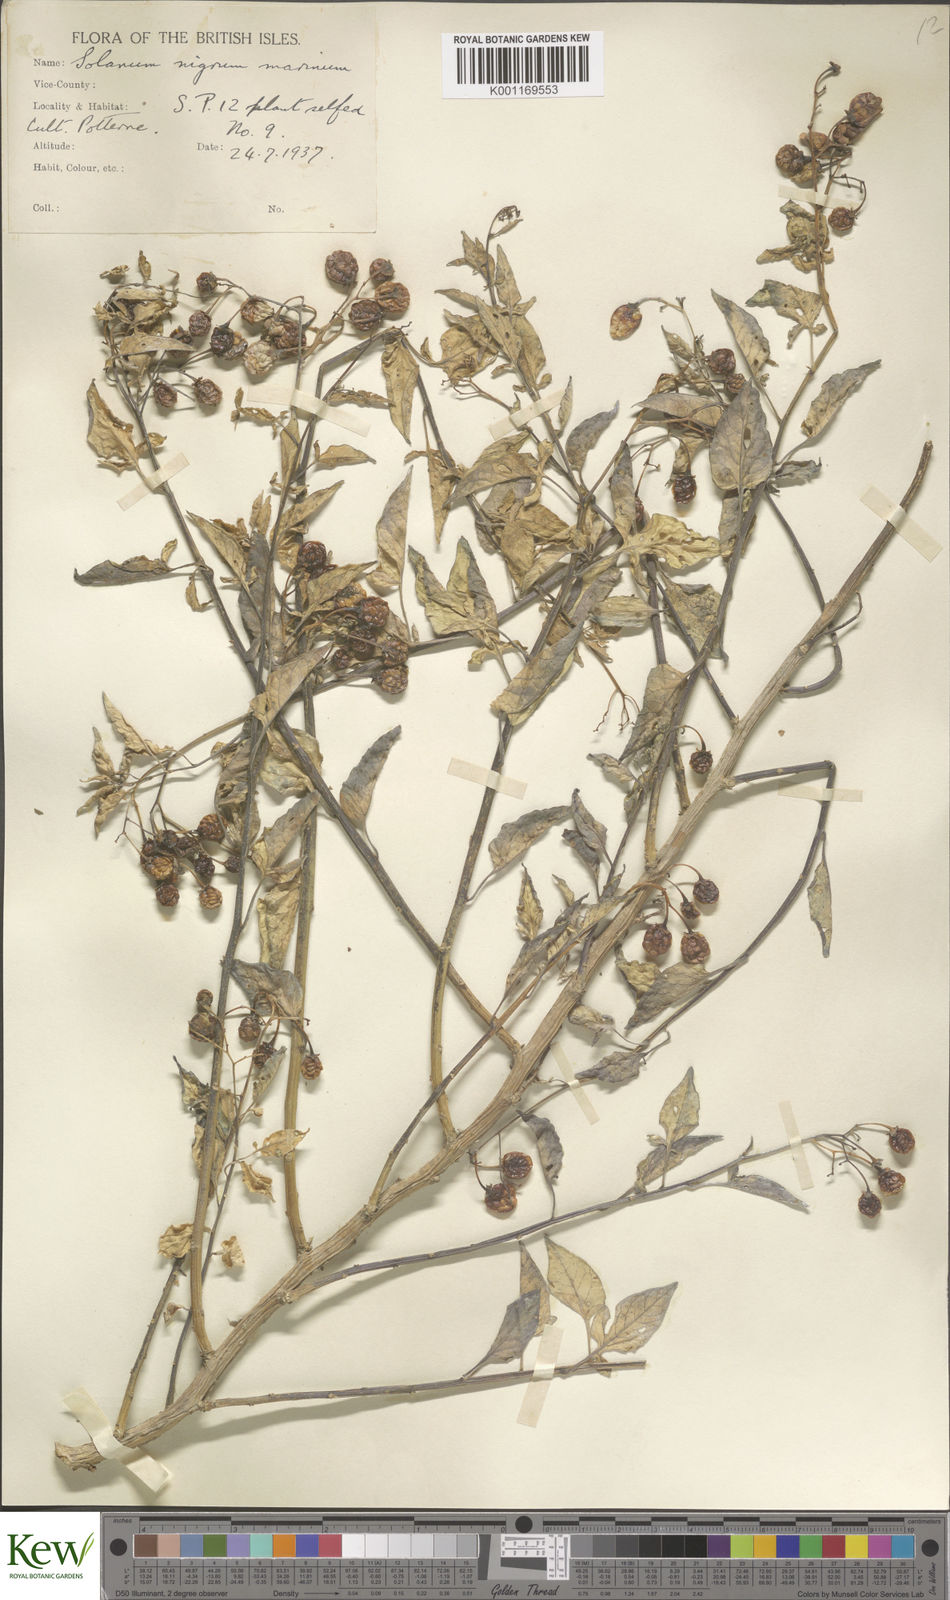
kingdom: Plantae
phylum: Tracheophyta
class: Magnoliopsida
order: Solanales
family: Solanaceae
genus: Solanum
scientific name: Solanum dulcamara
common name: Climbing nightshade
